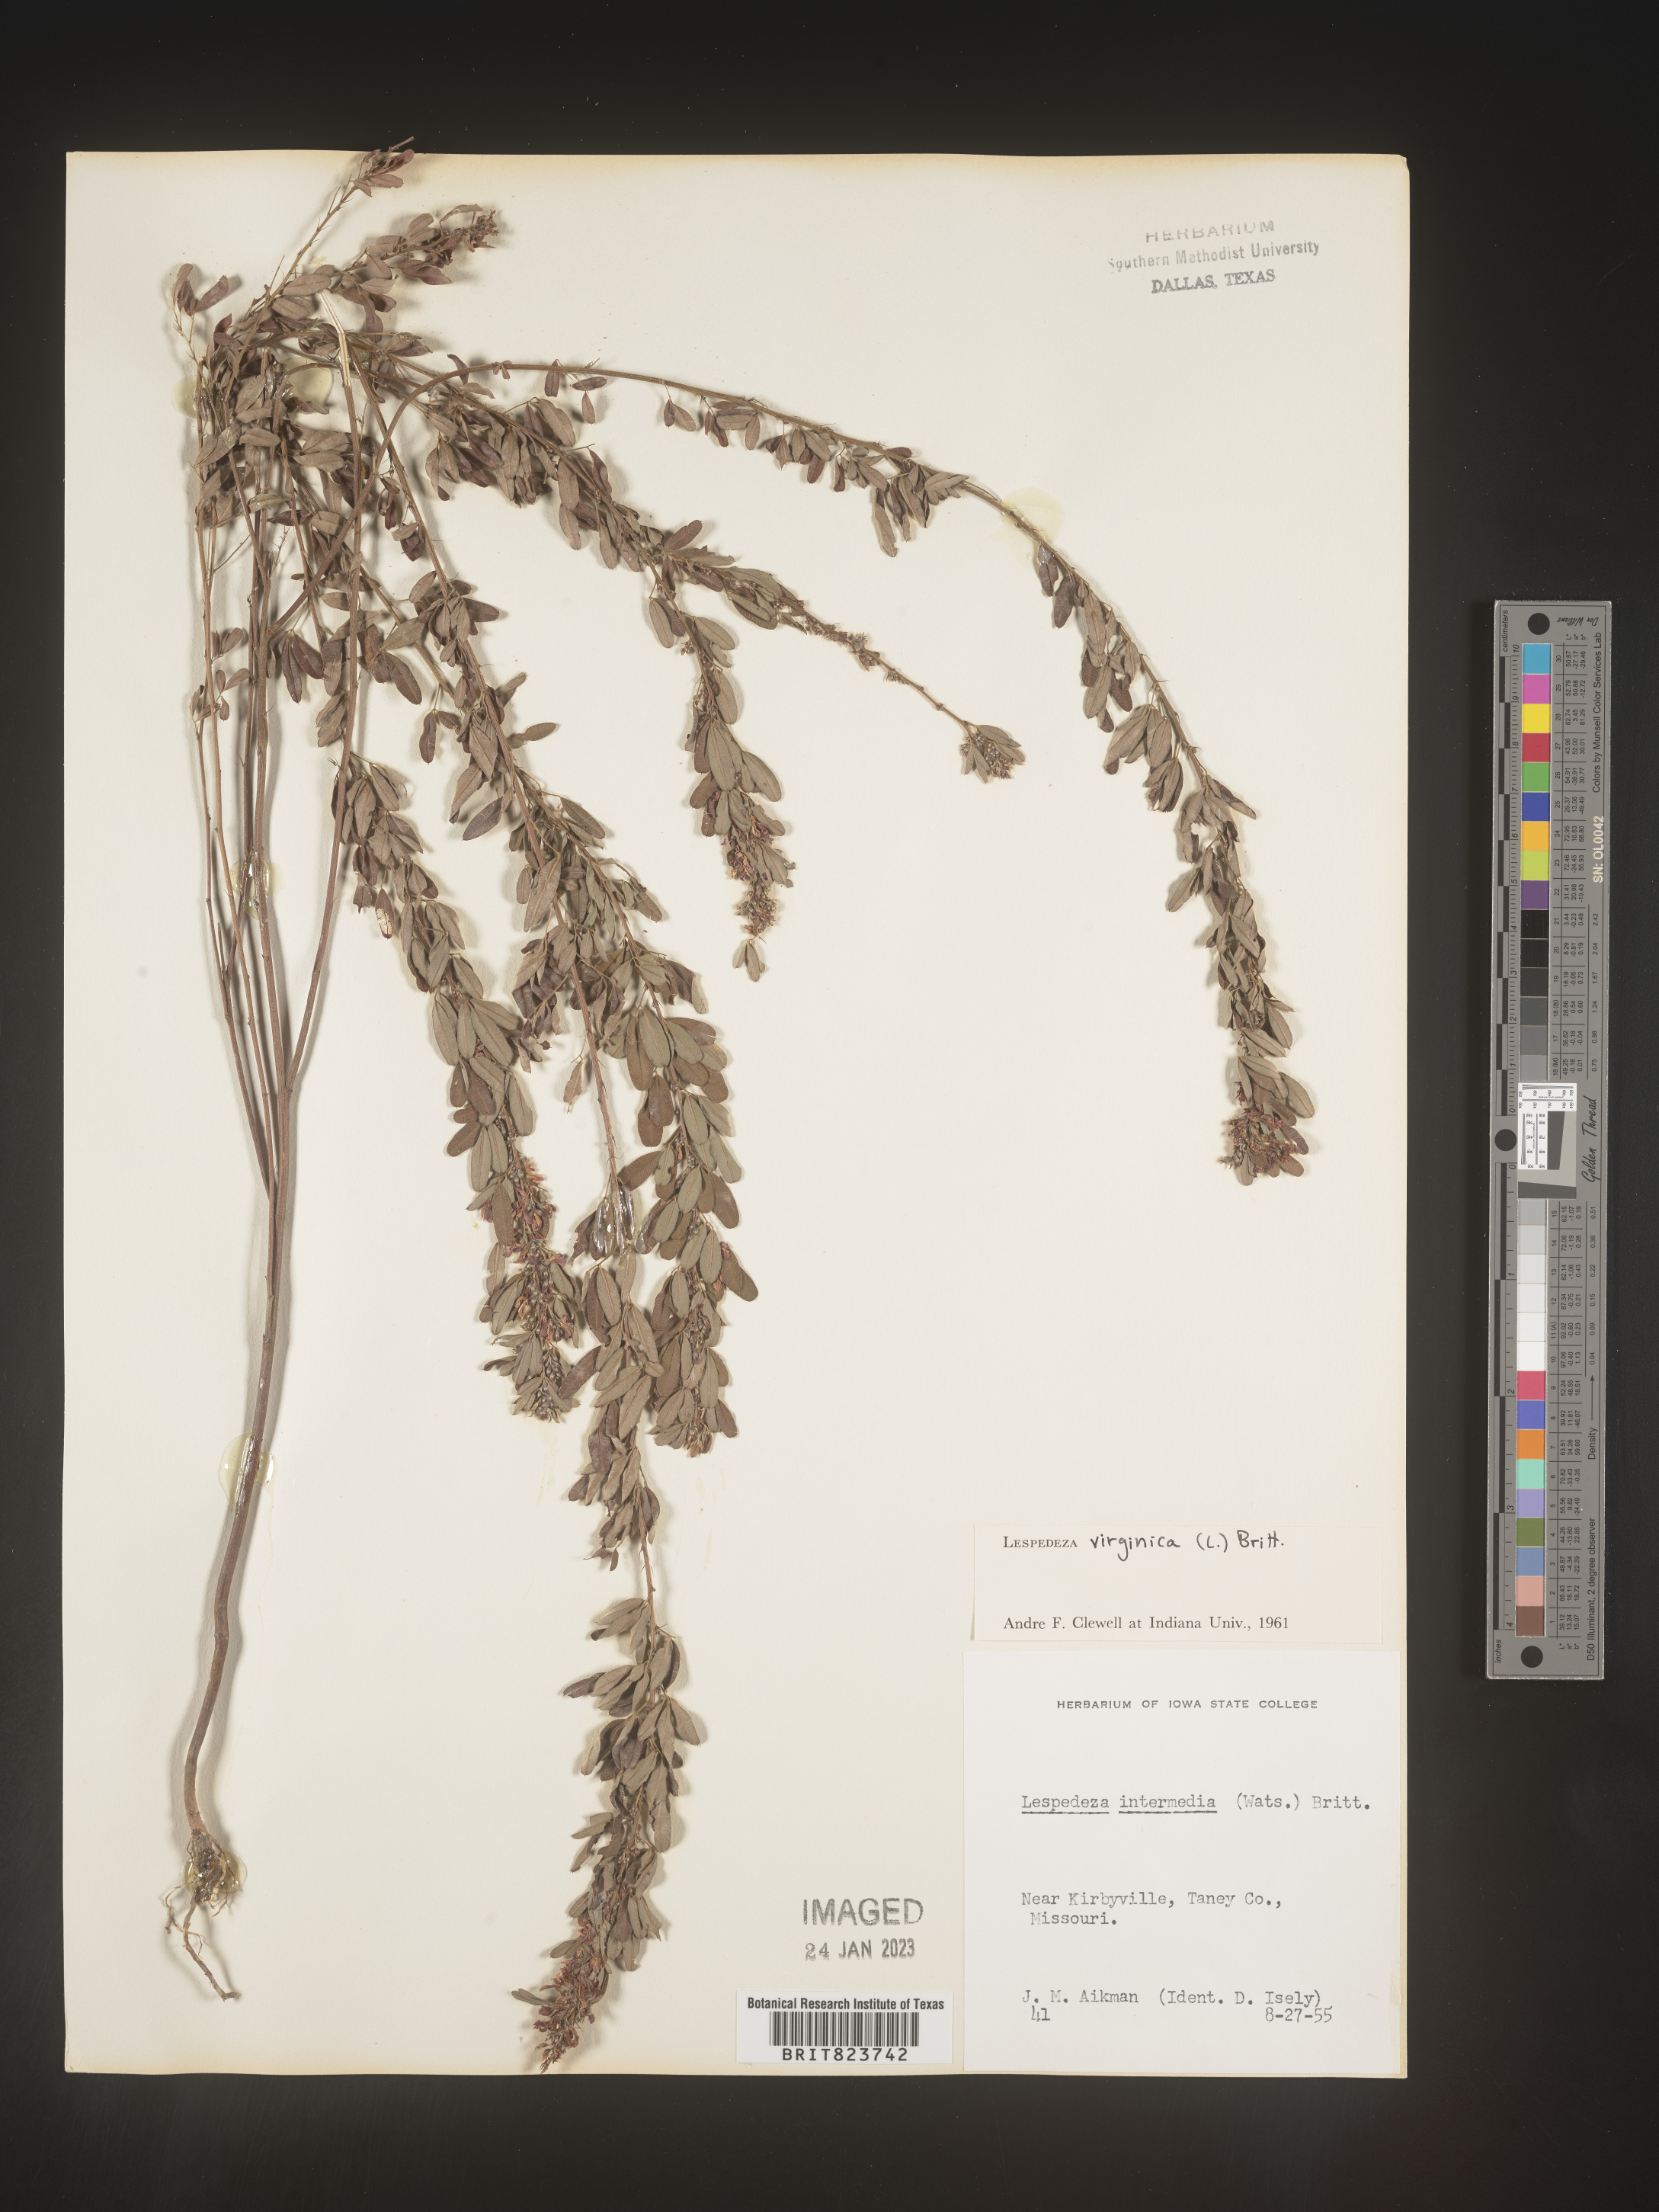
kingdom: Plantae
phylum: Tracheophyta
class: Magnoliopsida
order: Fabales
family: Fabaceae
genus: Lespedeza
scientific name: Lespedeza virginica
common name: Slender bush-clover
